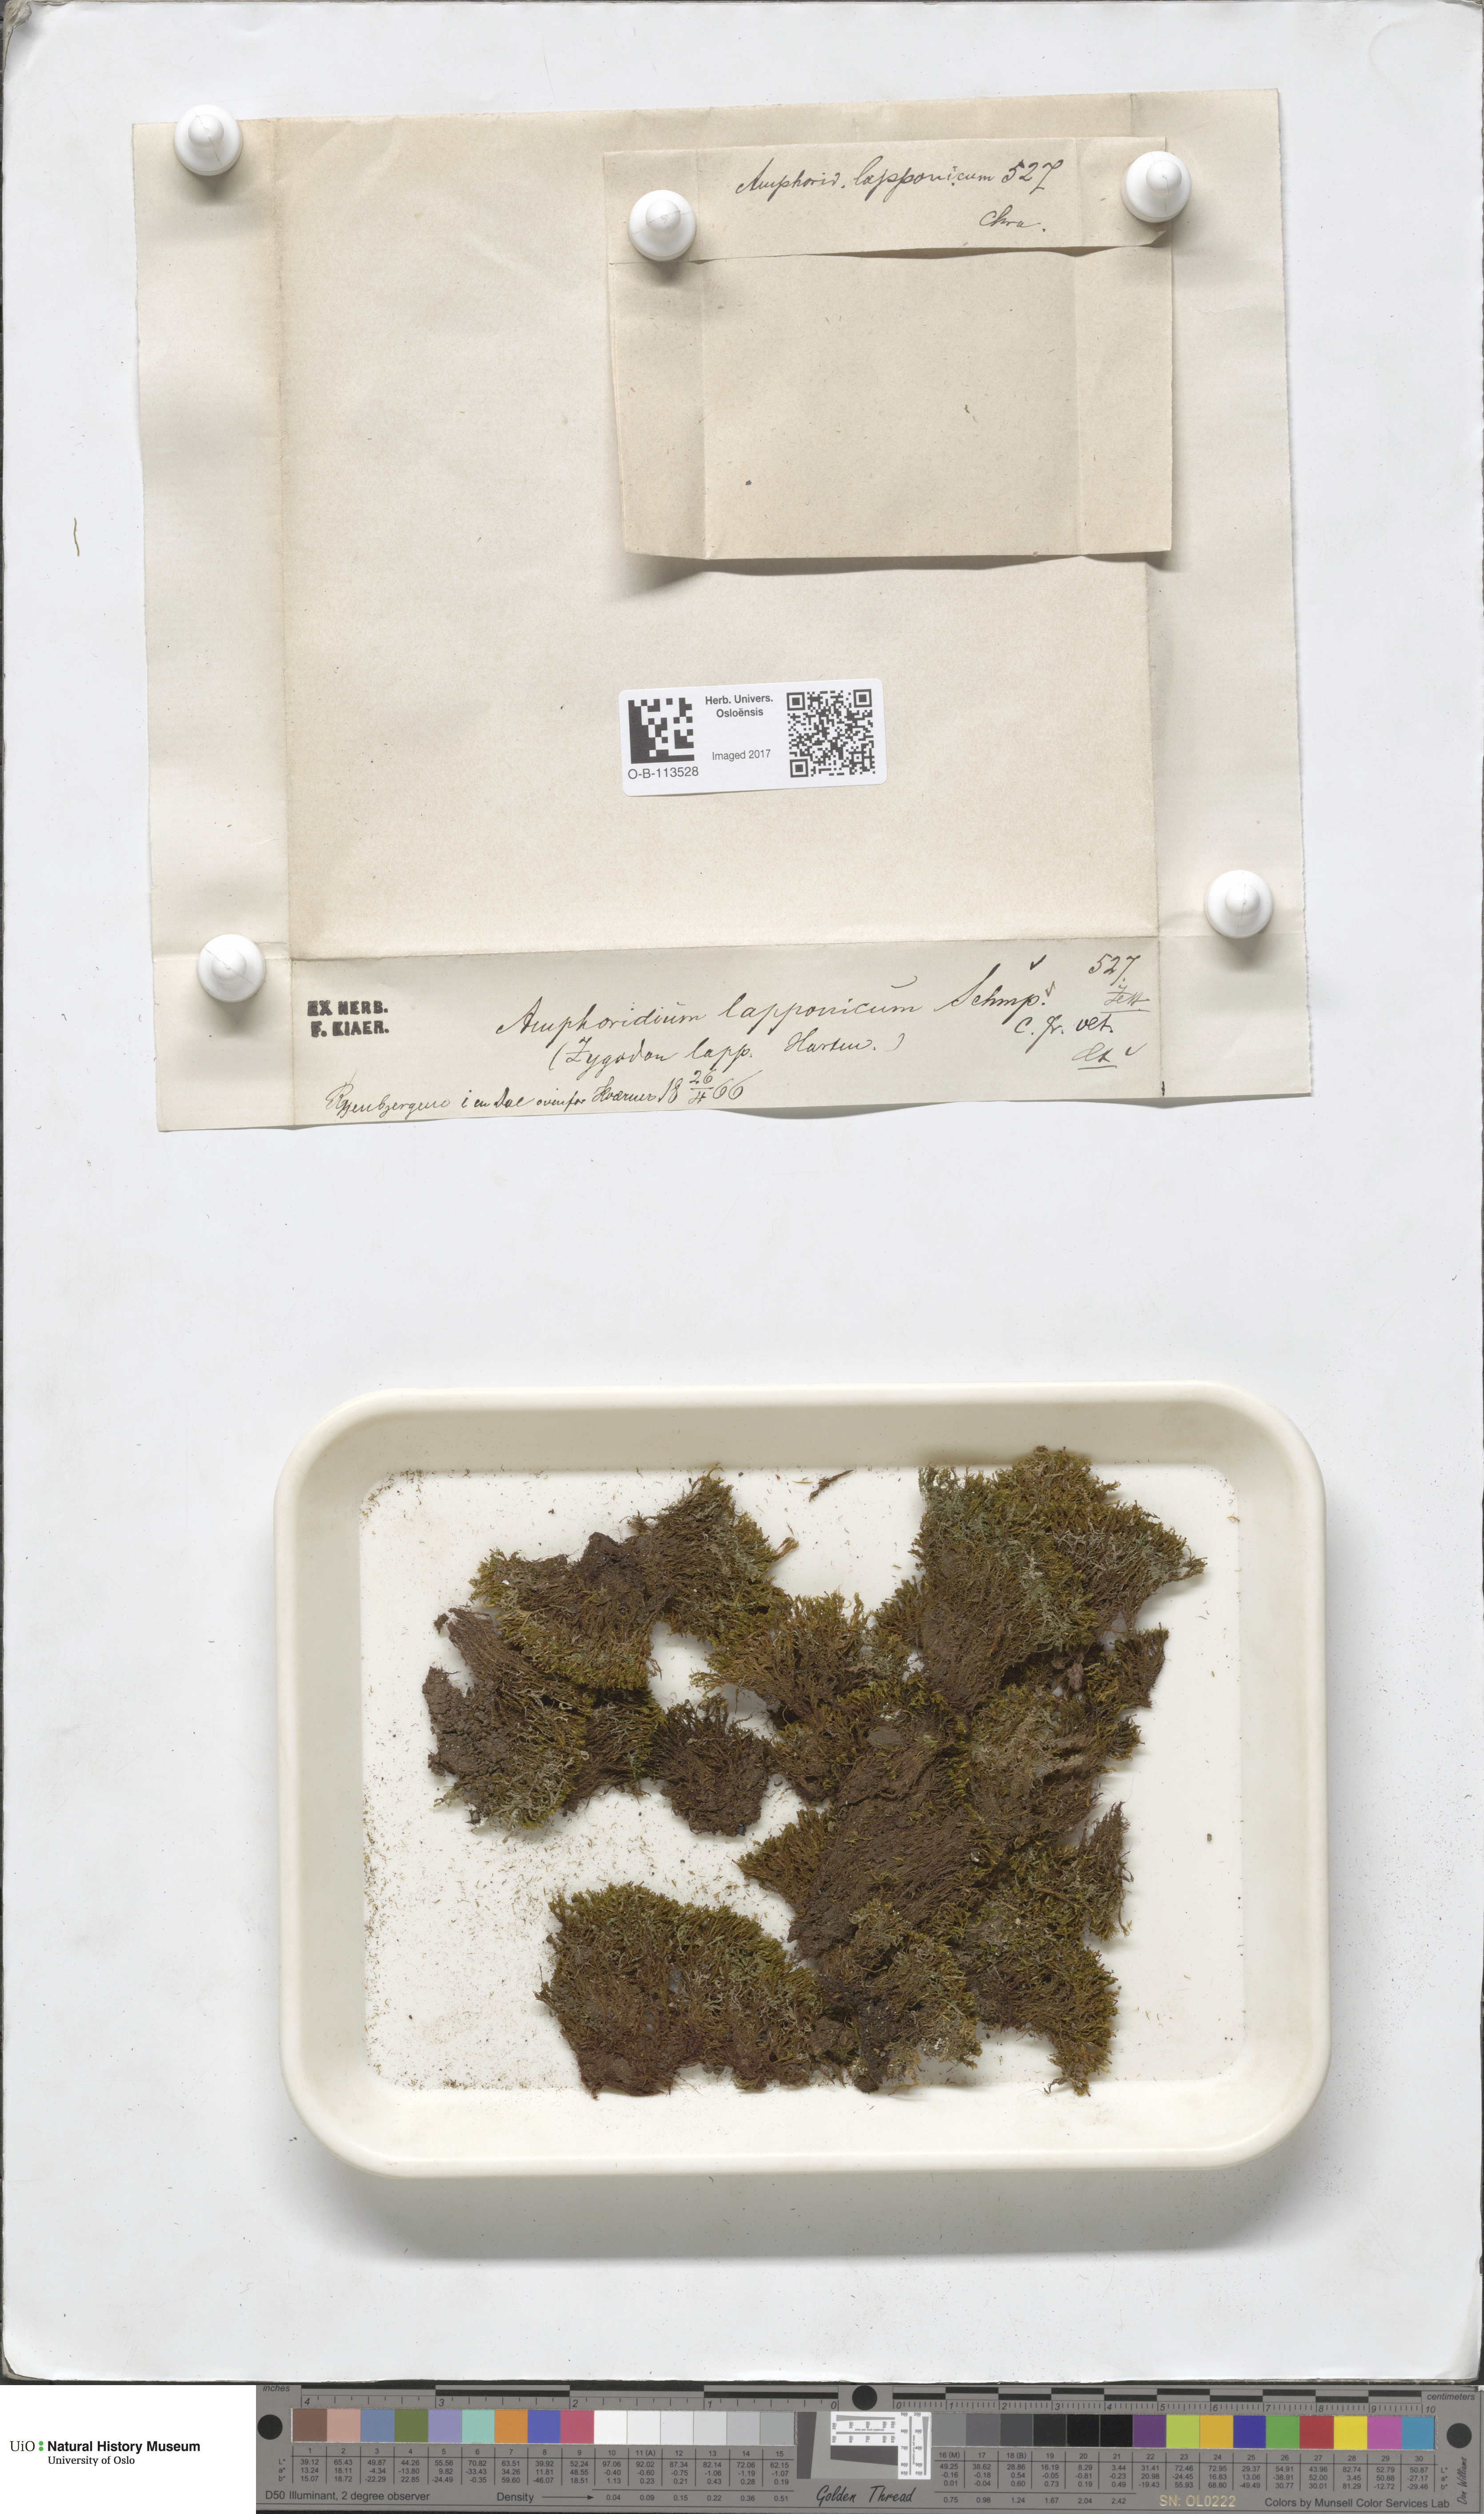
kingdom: Plantae
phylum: Bryophyta
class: Bryopsida
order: Dicranales
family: Amphidiaceae
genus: Amphidium
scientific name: Amphidium lapponicum
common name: Lapland yoke moss
